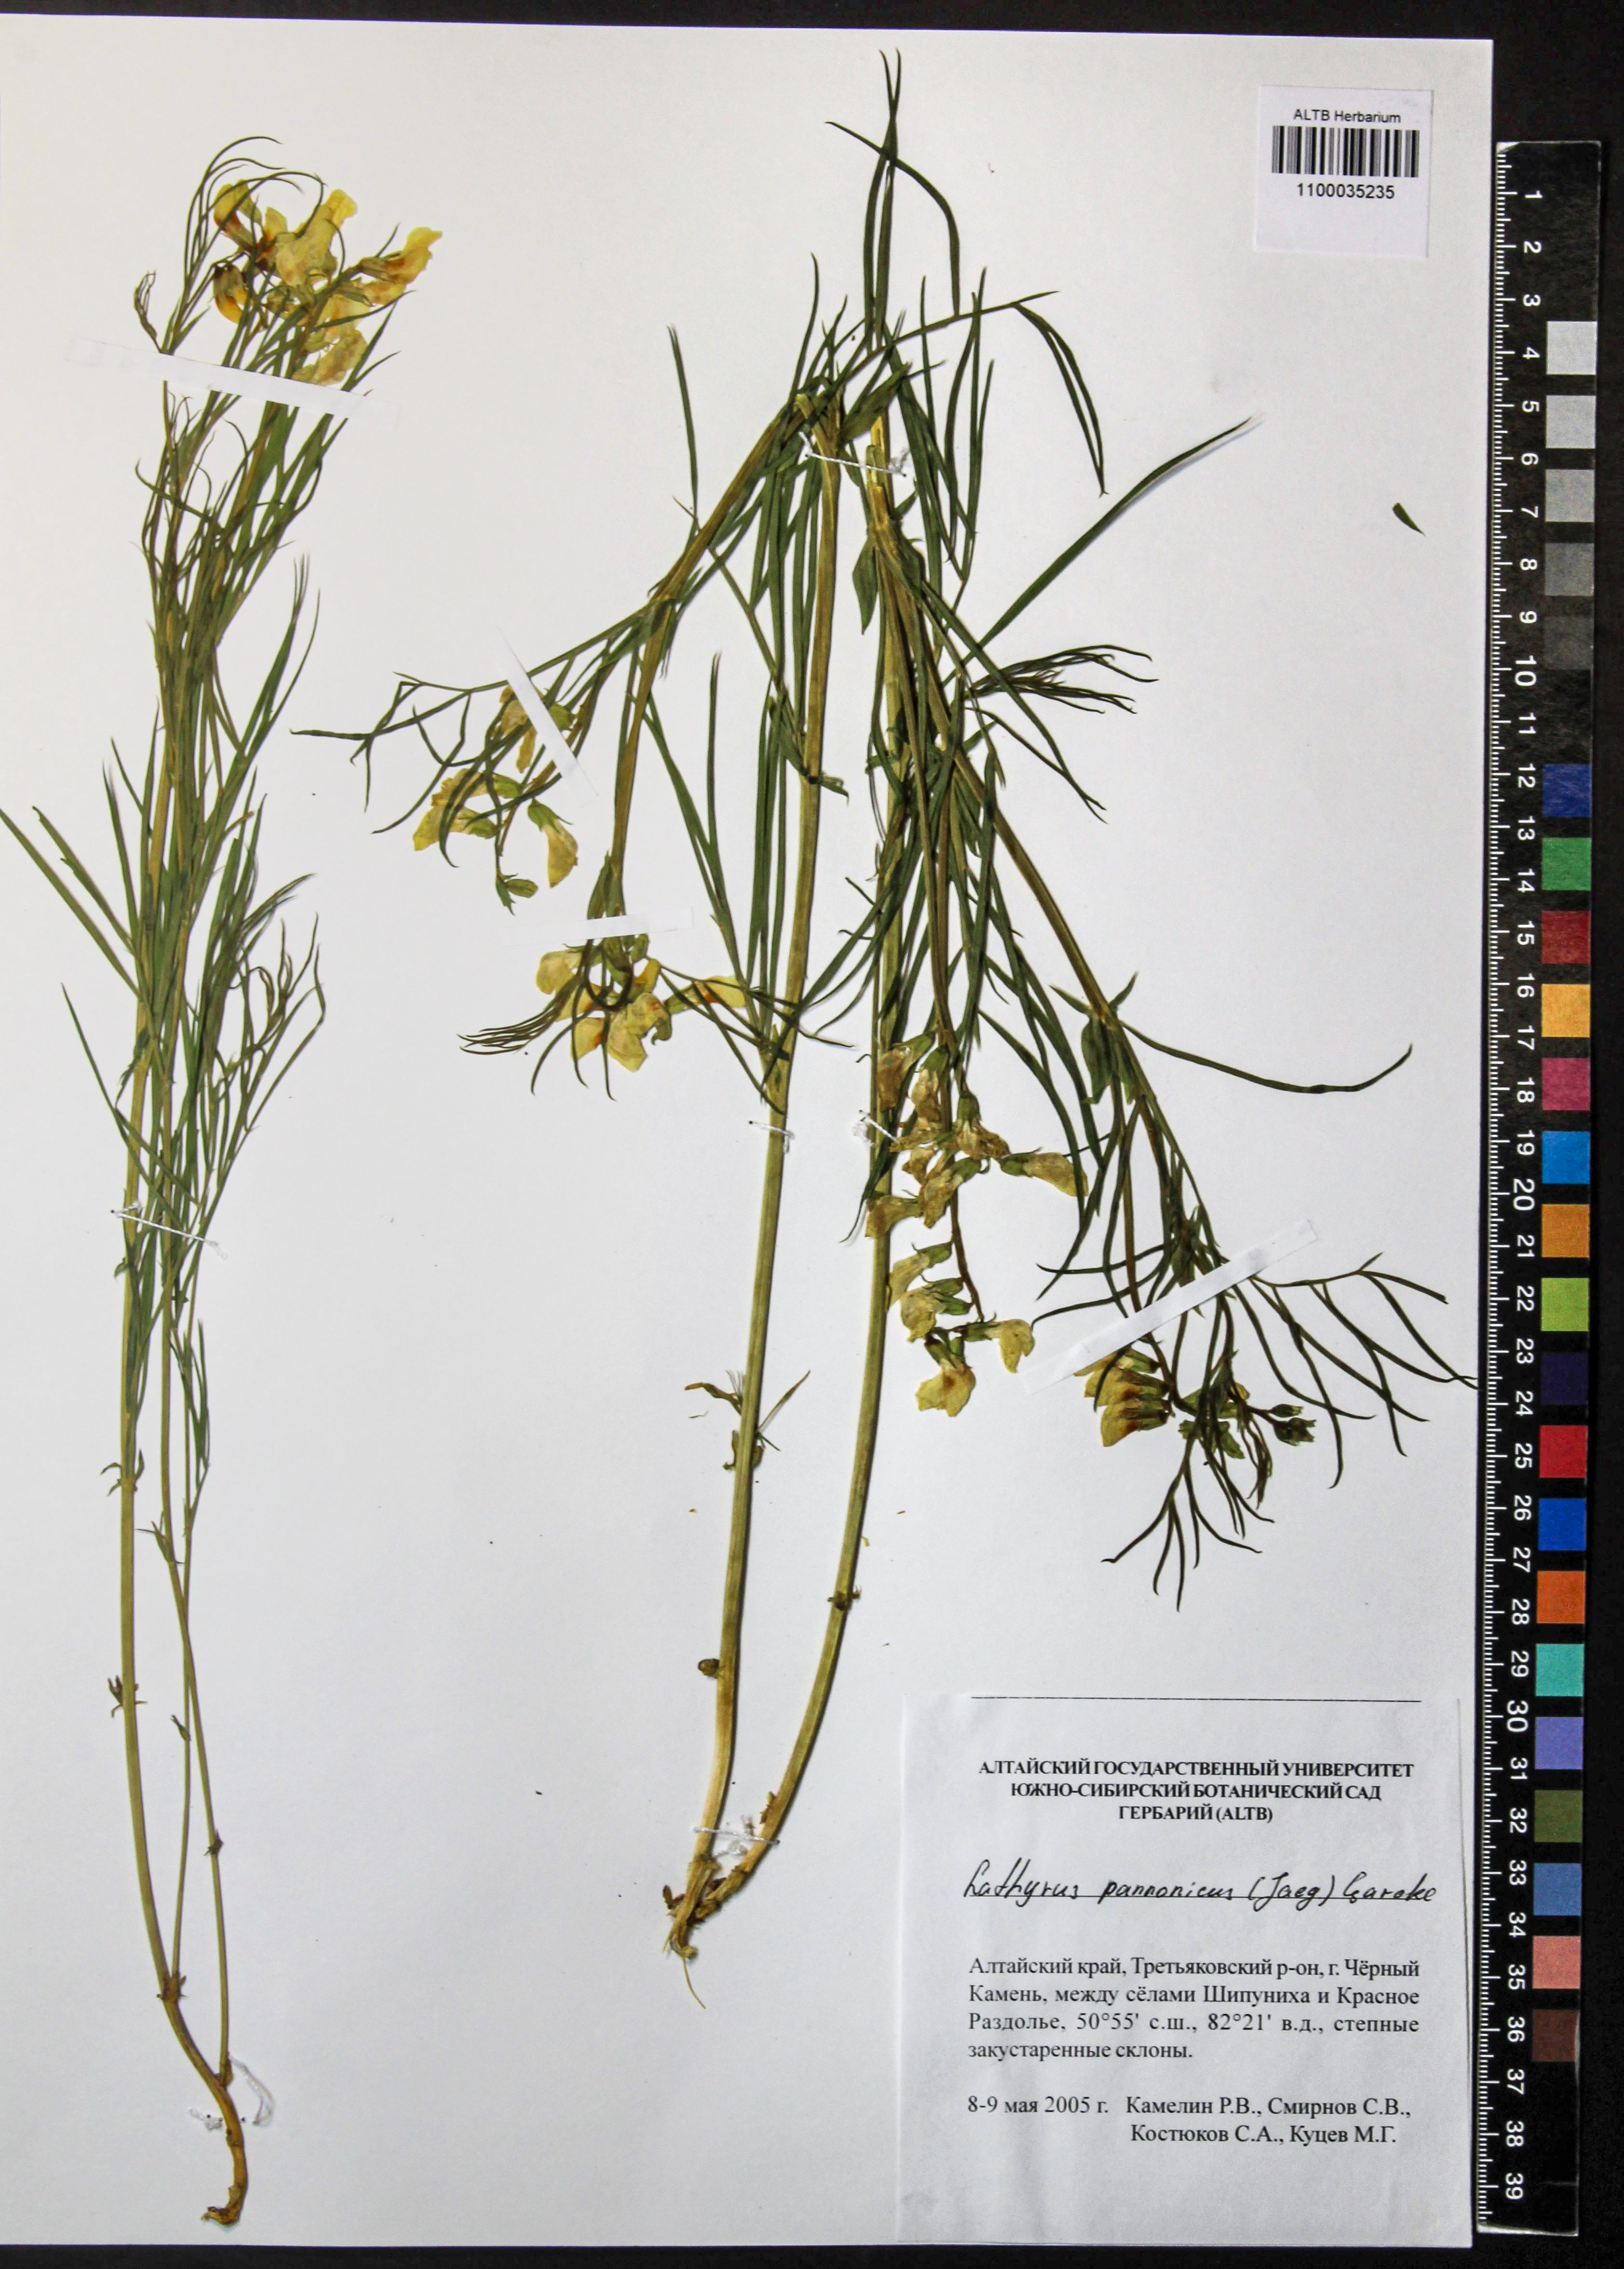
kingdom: Plantae
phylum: Tracheophyta
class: Magnoliopsida
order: Fabales
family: Fabaceae
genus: Lathyrus
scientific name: Lathyrus pannonicus
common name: Pea
